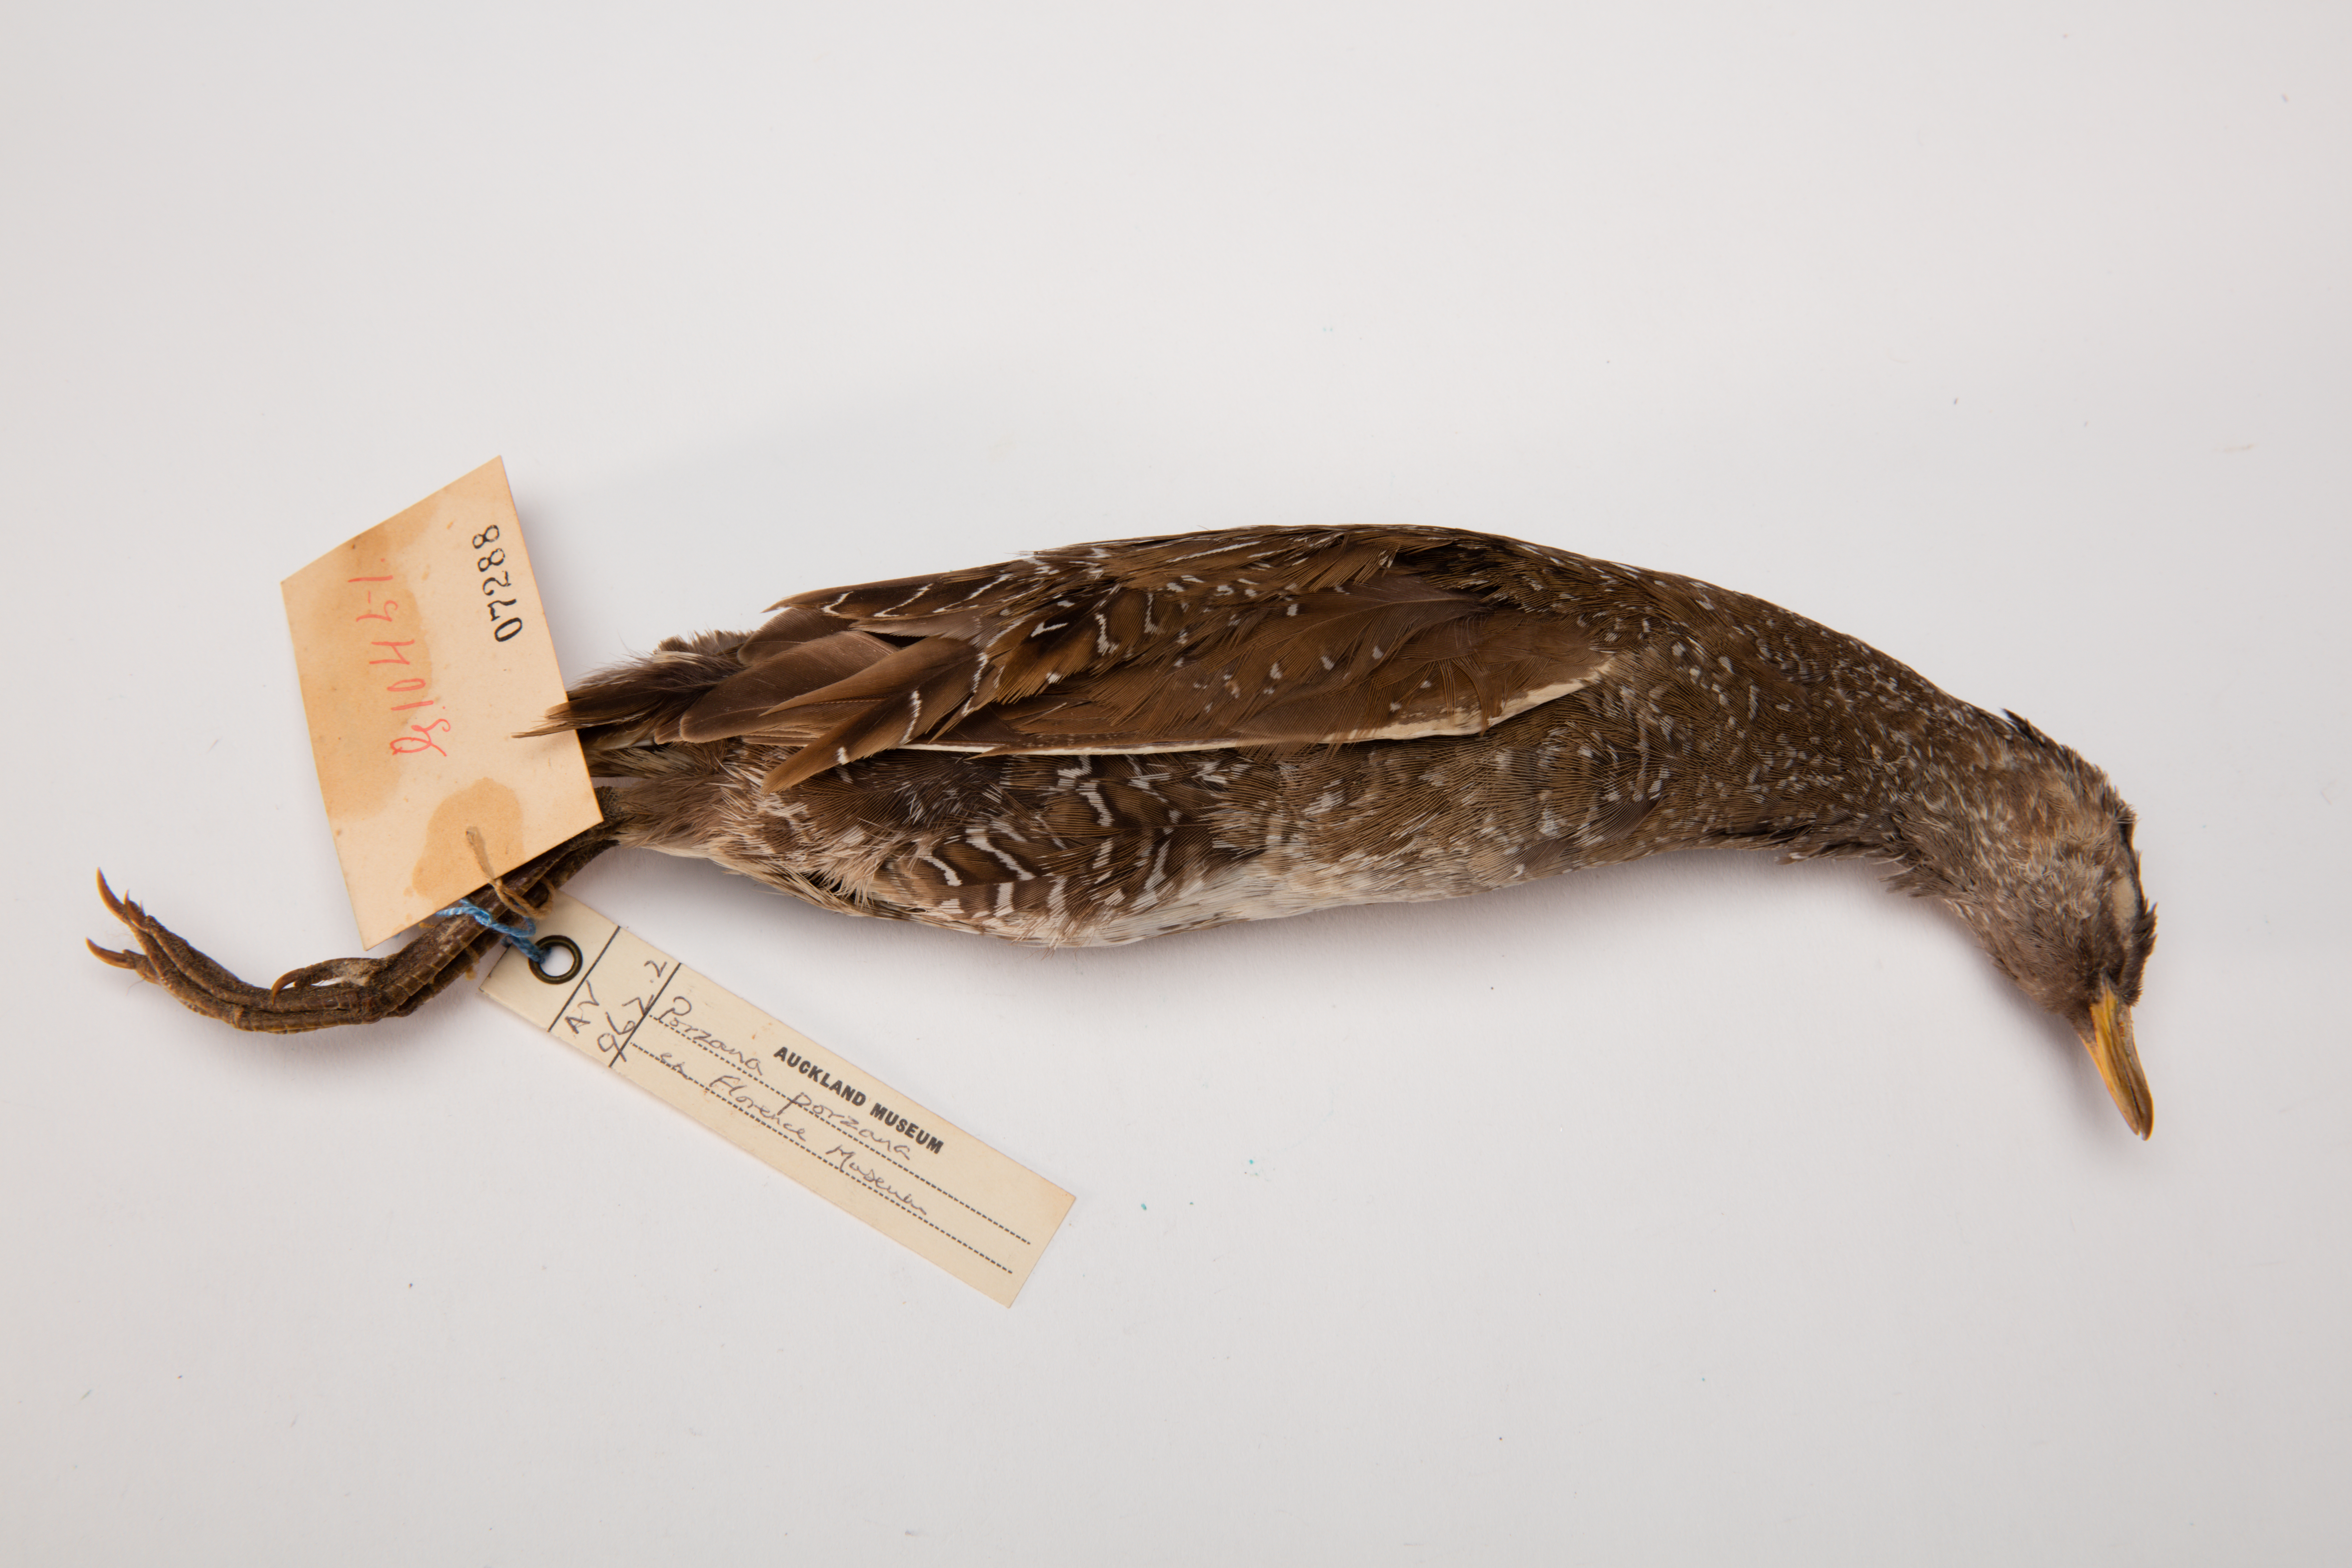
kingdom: Animalia
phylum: Chordata
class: Aves
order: Gruiformes
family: Rallidae
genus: Porzana
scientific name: Porzana porzana
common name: Spotted crake
